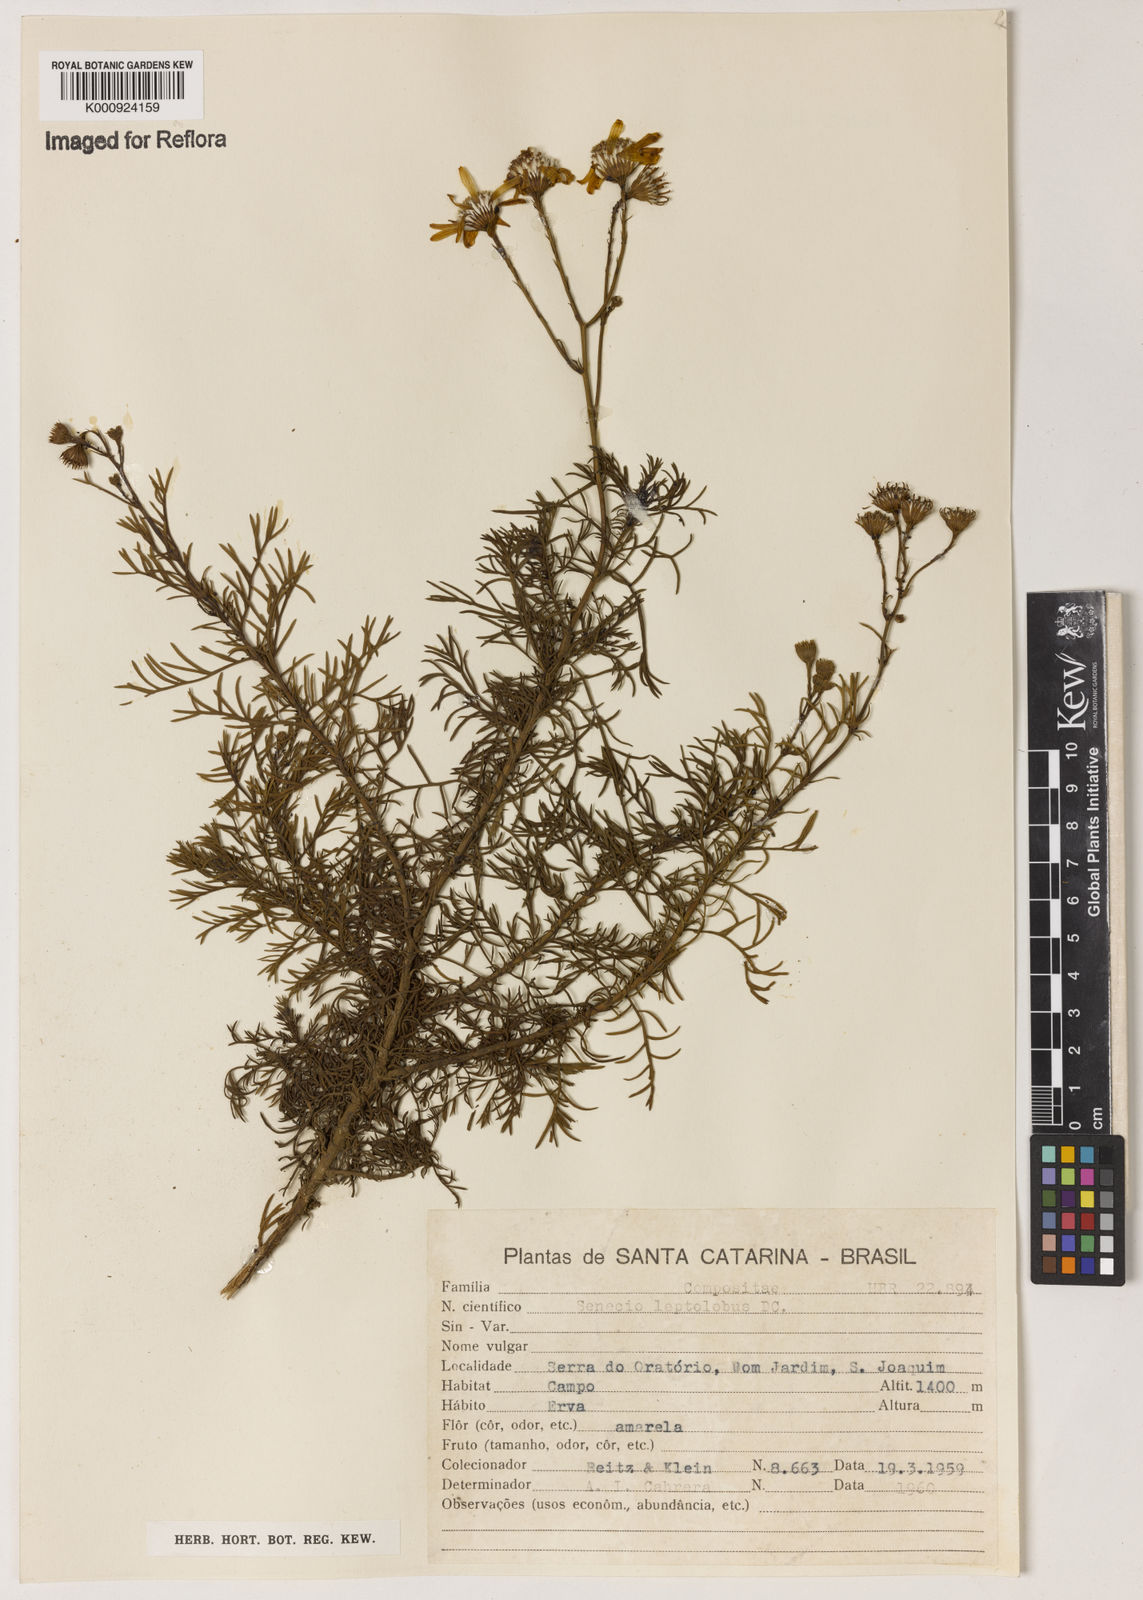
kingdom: Plantae
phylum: Tracheophyta
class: Magnoliopsida
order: Asterales
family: Asteraceae
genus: Senecio
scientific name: Senecio leptolobus
